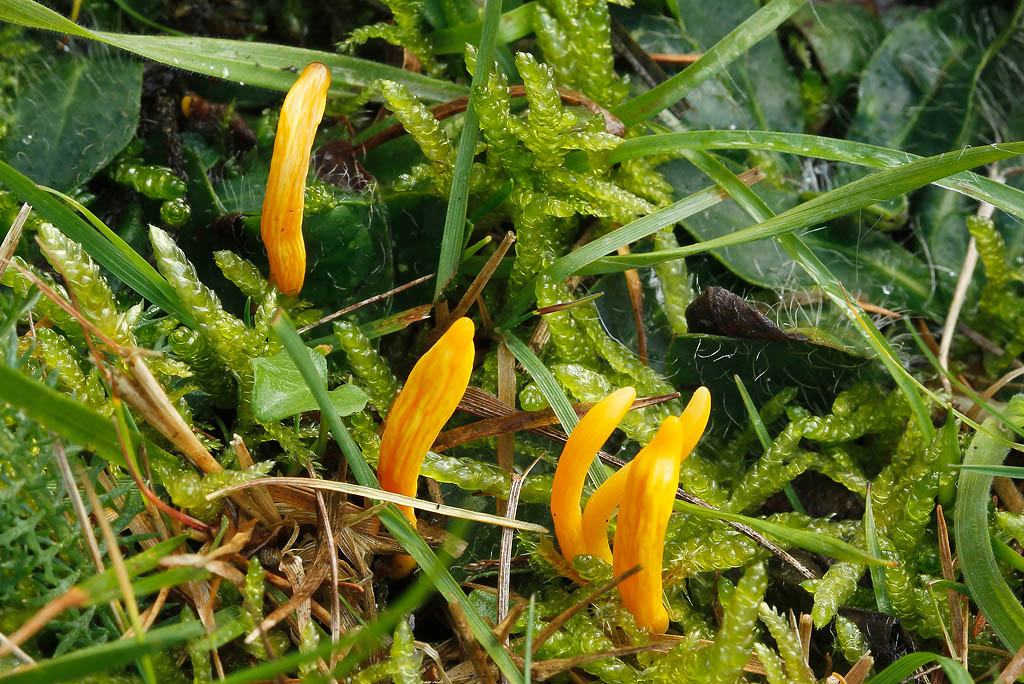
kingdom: Fungi
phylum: Basidiomycota
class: Agaricomycetes
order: Agaricales
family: Clavariaceae
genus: Clavulinopsis
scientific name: Clavulinopsis helvola
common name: orangegul køllesvamp
